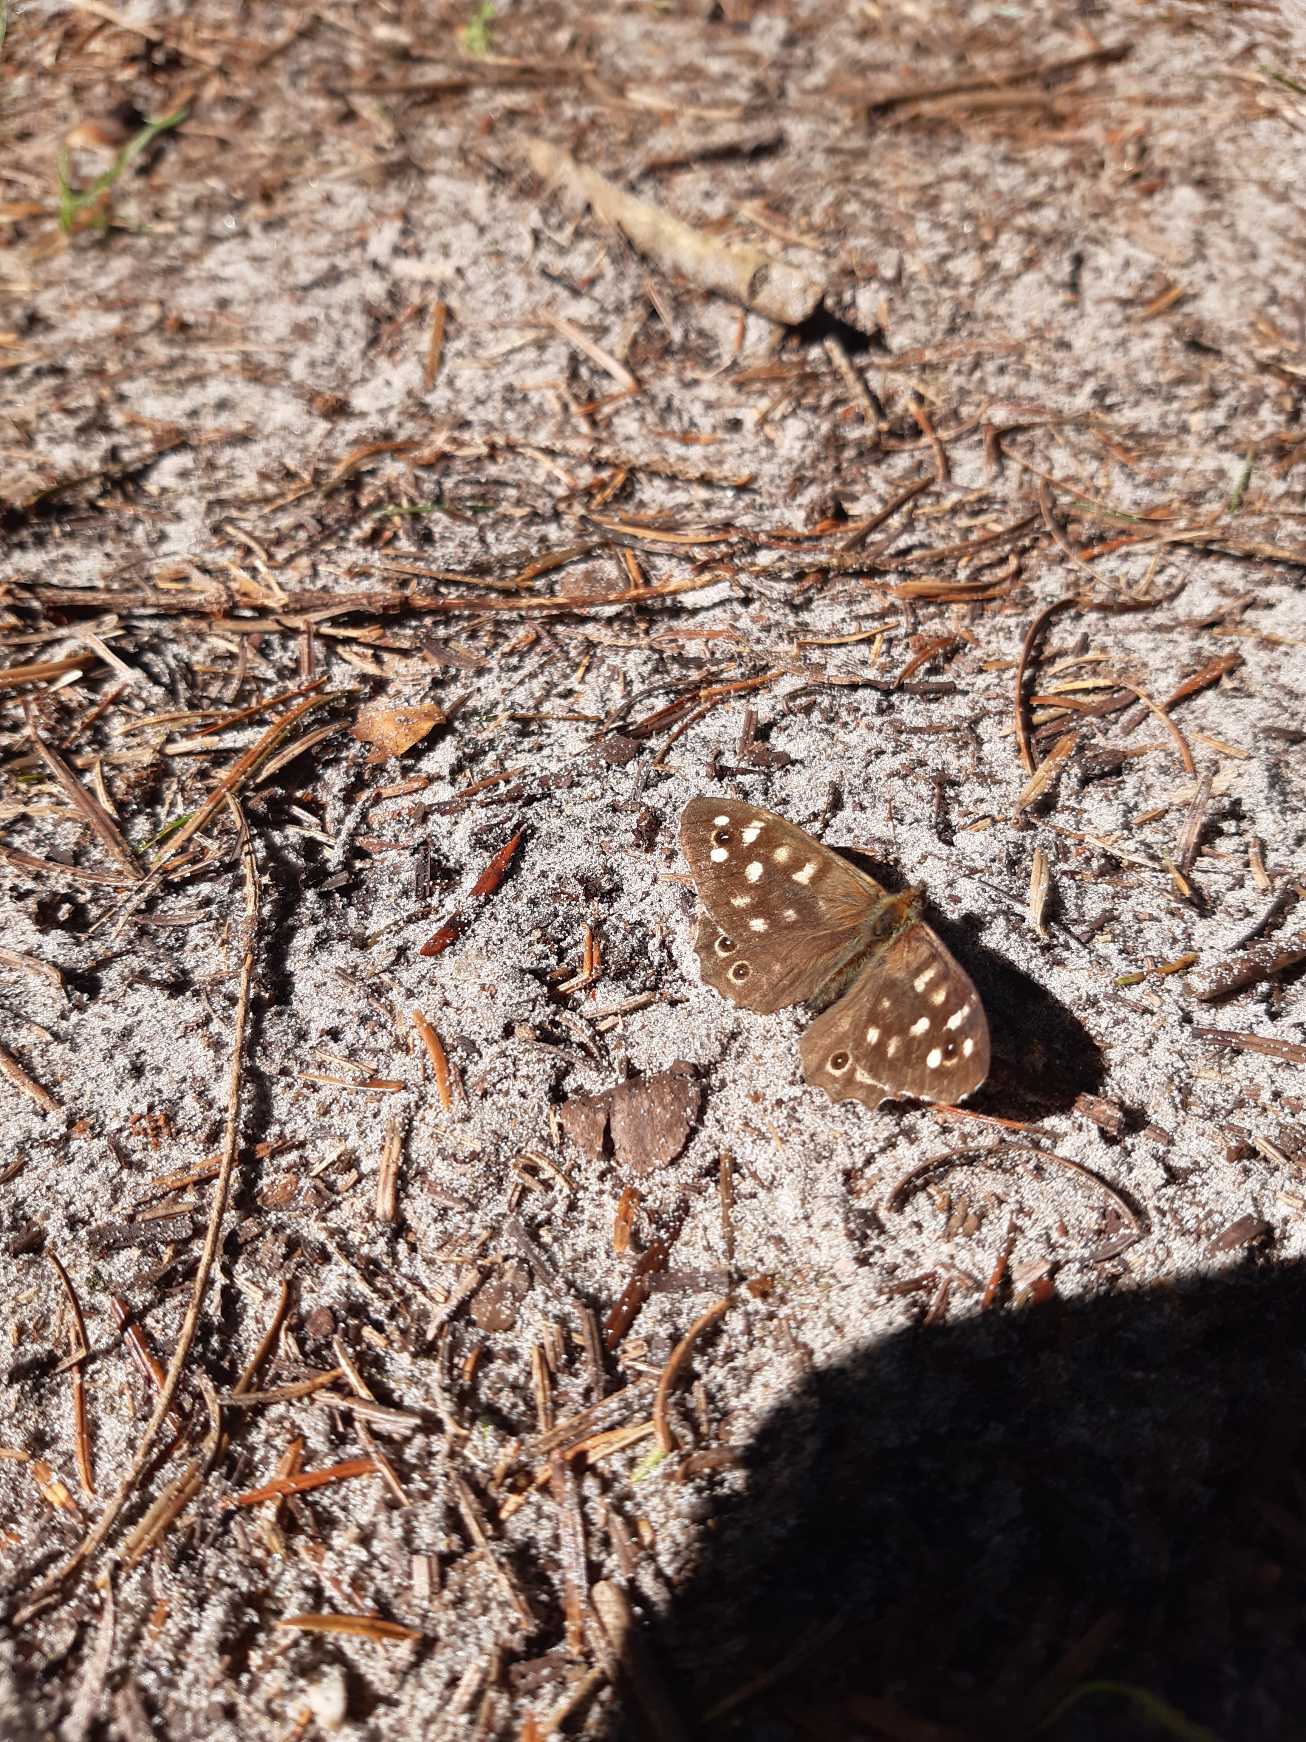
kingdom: Animalia
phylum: Arthropoda
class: Insecta
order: Lepidoptera
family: Nymphalidae
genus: Pararge
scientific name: Pararge aegeria
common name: Skovrandøje
